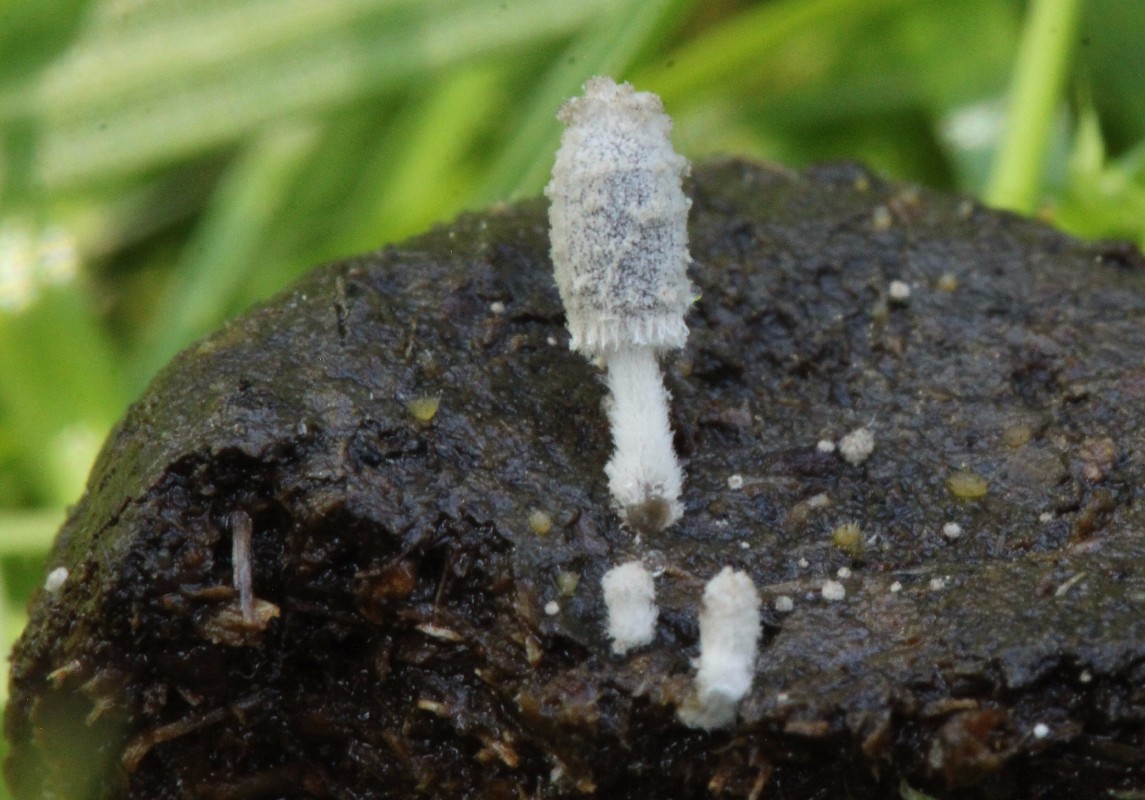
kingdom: Fungi
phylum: Basidiomycota
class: Agaricomycetes
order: Agaricales
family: Psathyrellaceae
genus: Coprinopsis
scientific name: Coprinopsis
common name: blækhat
